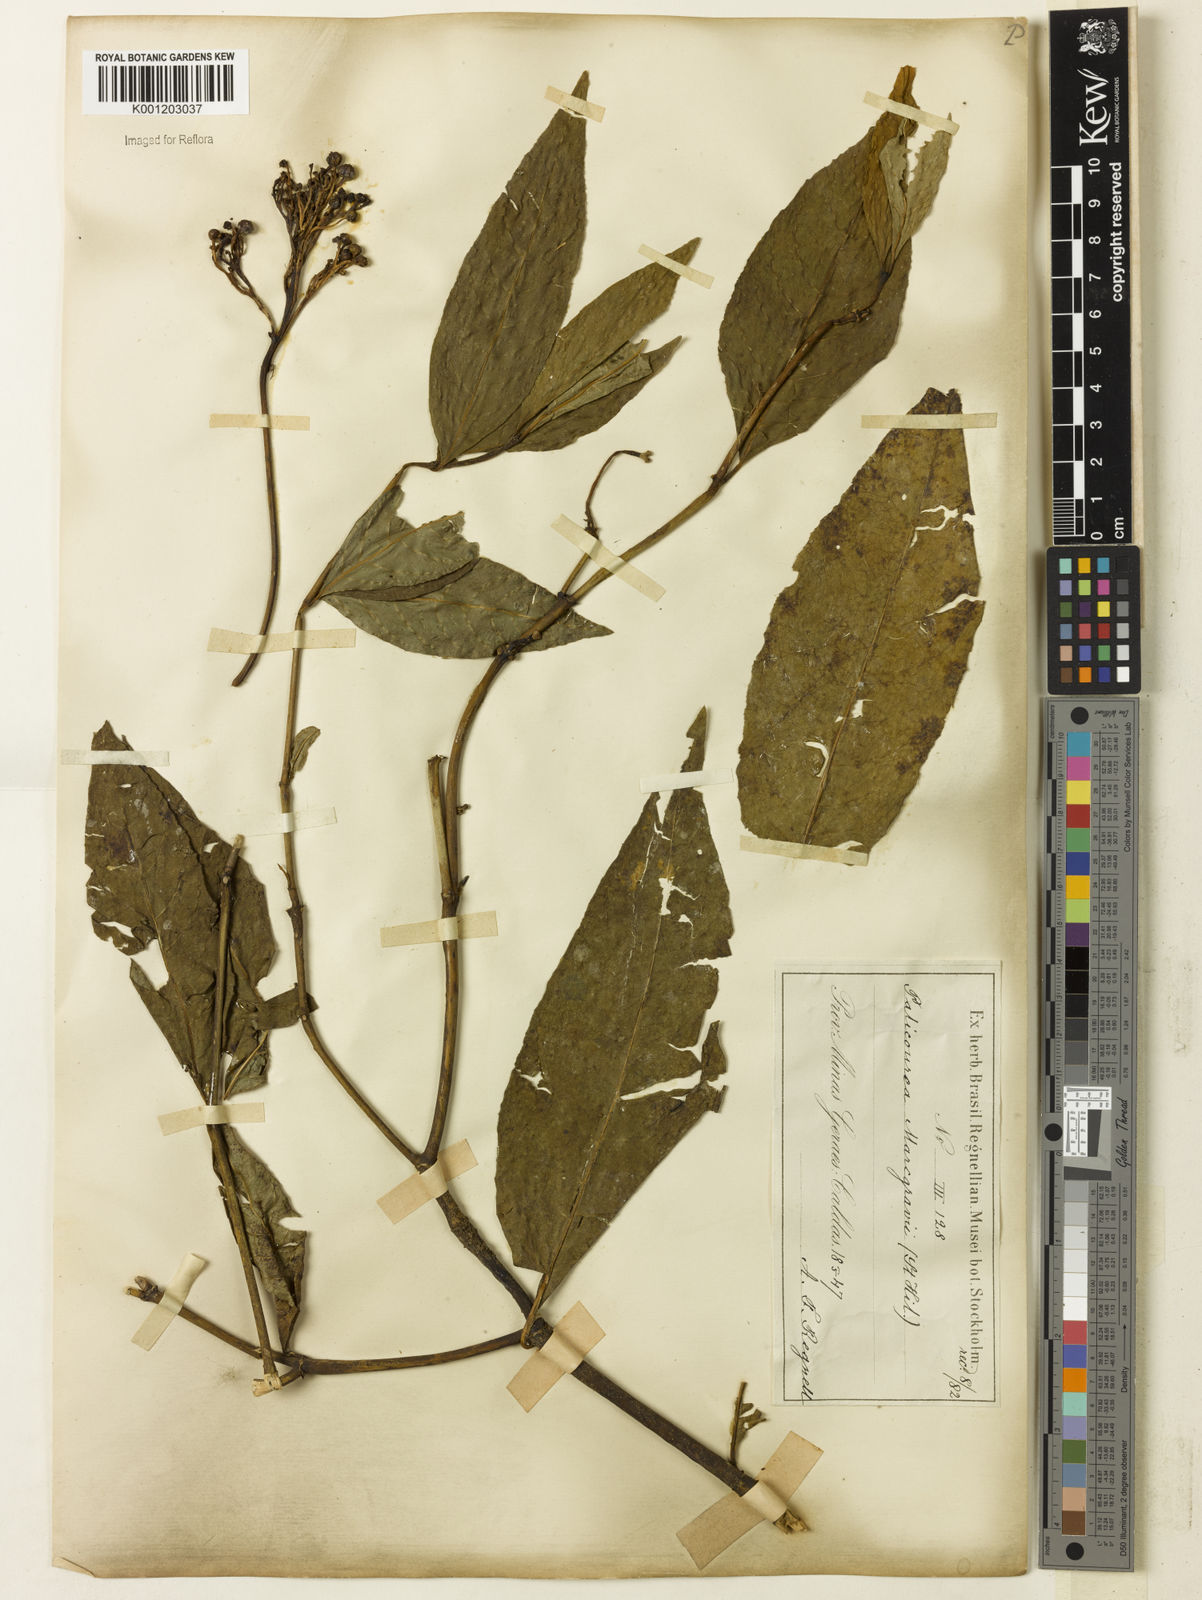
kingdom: Plantae
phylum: Tracheophyta
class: Magnoliopsida
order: Gentianales
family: Rubiaceae
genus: Palicourea
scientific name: Palicourea marcgravii
